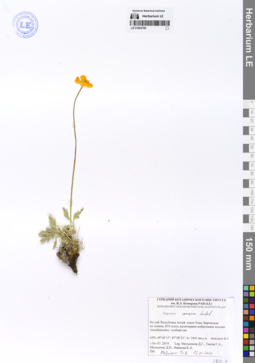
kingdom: Plantae
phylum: Tracheophyta
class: Magnoliopsida
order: Ranunculales
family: Papaveraceae
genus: Papaver
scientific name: Papaver croceum
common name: Siberian poppy
